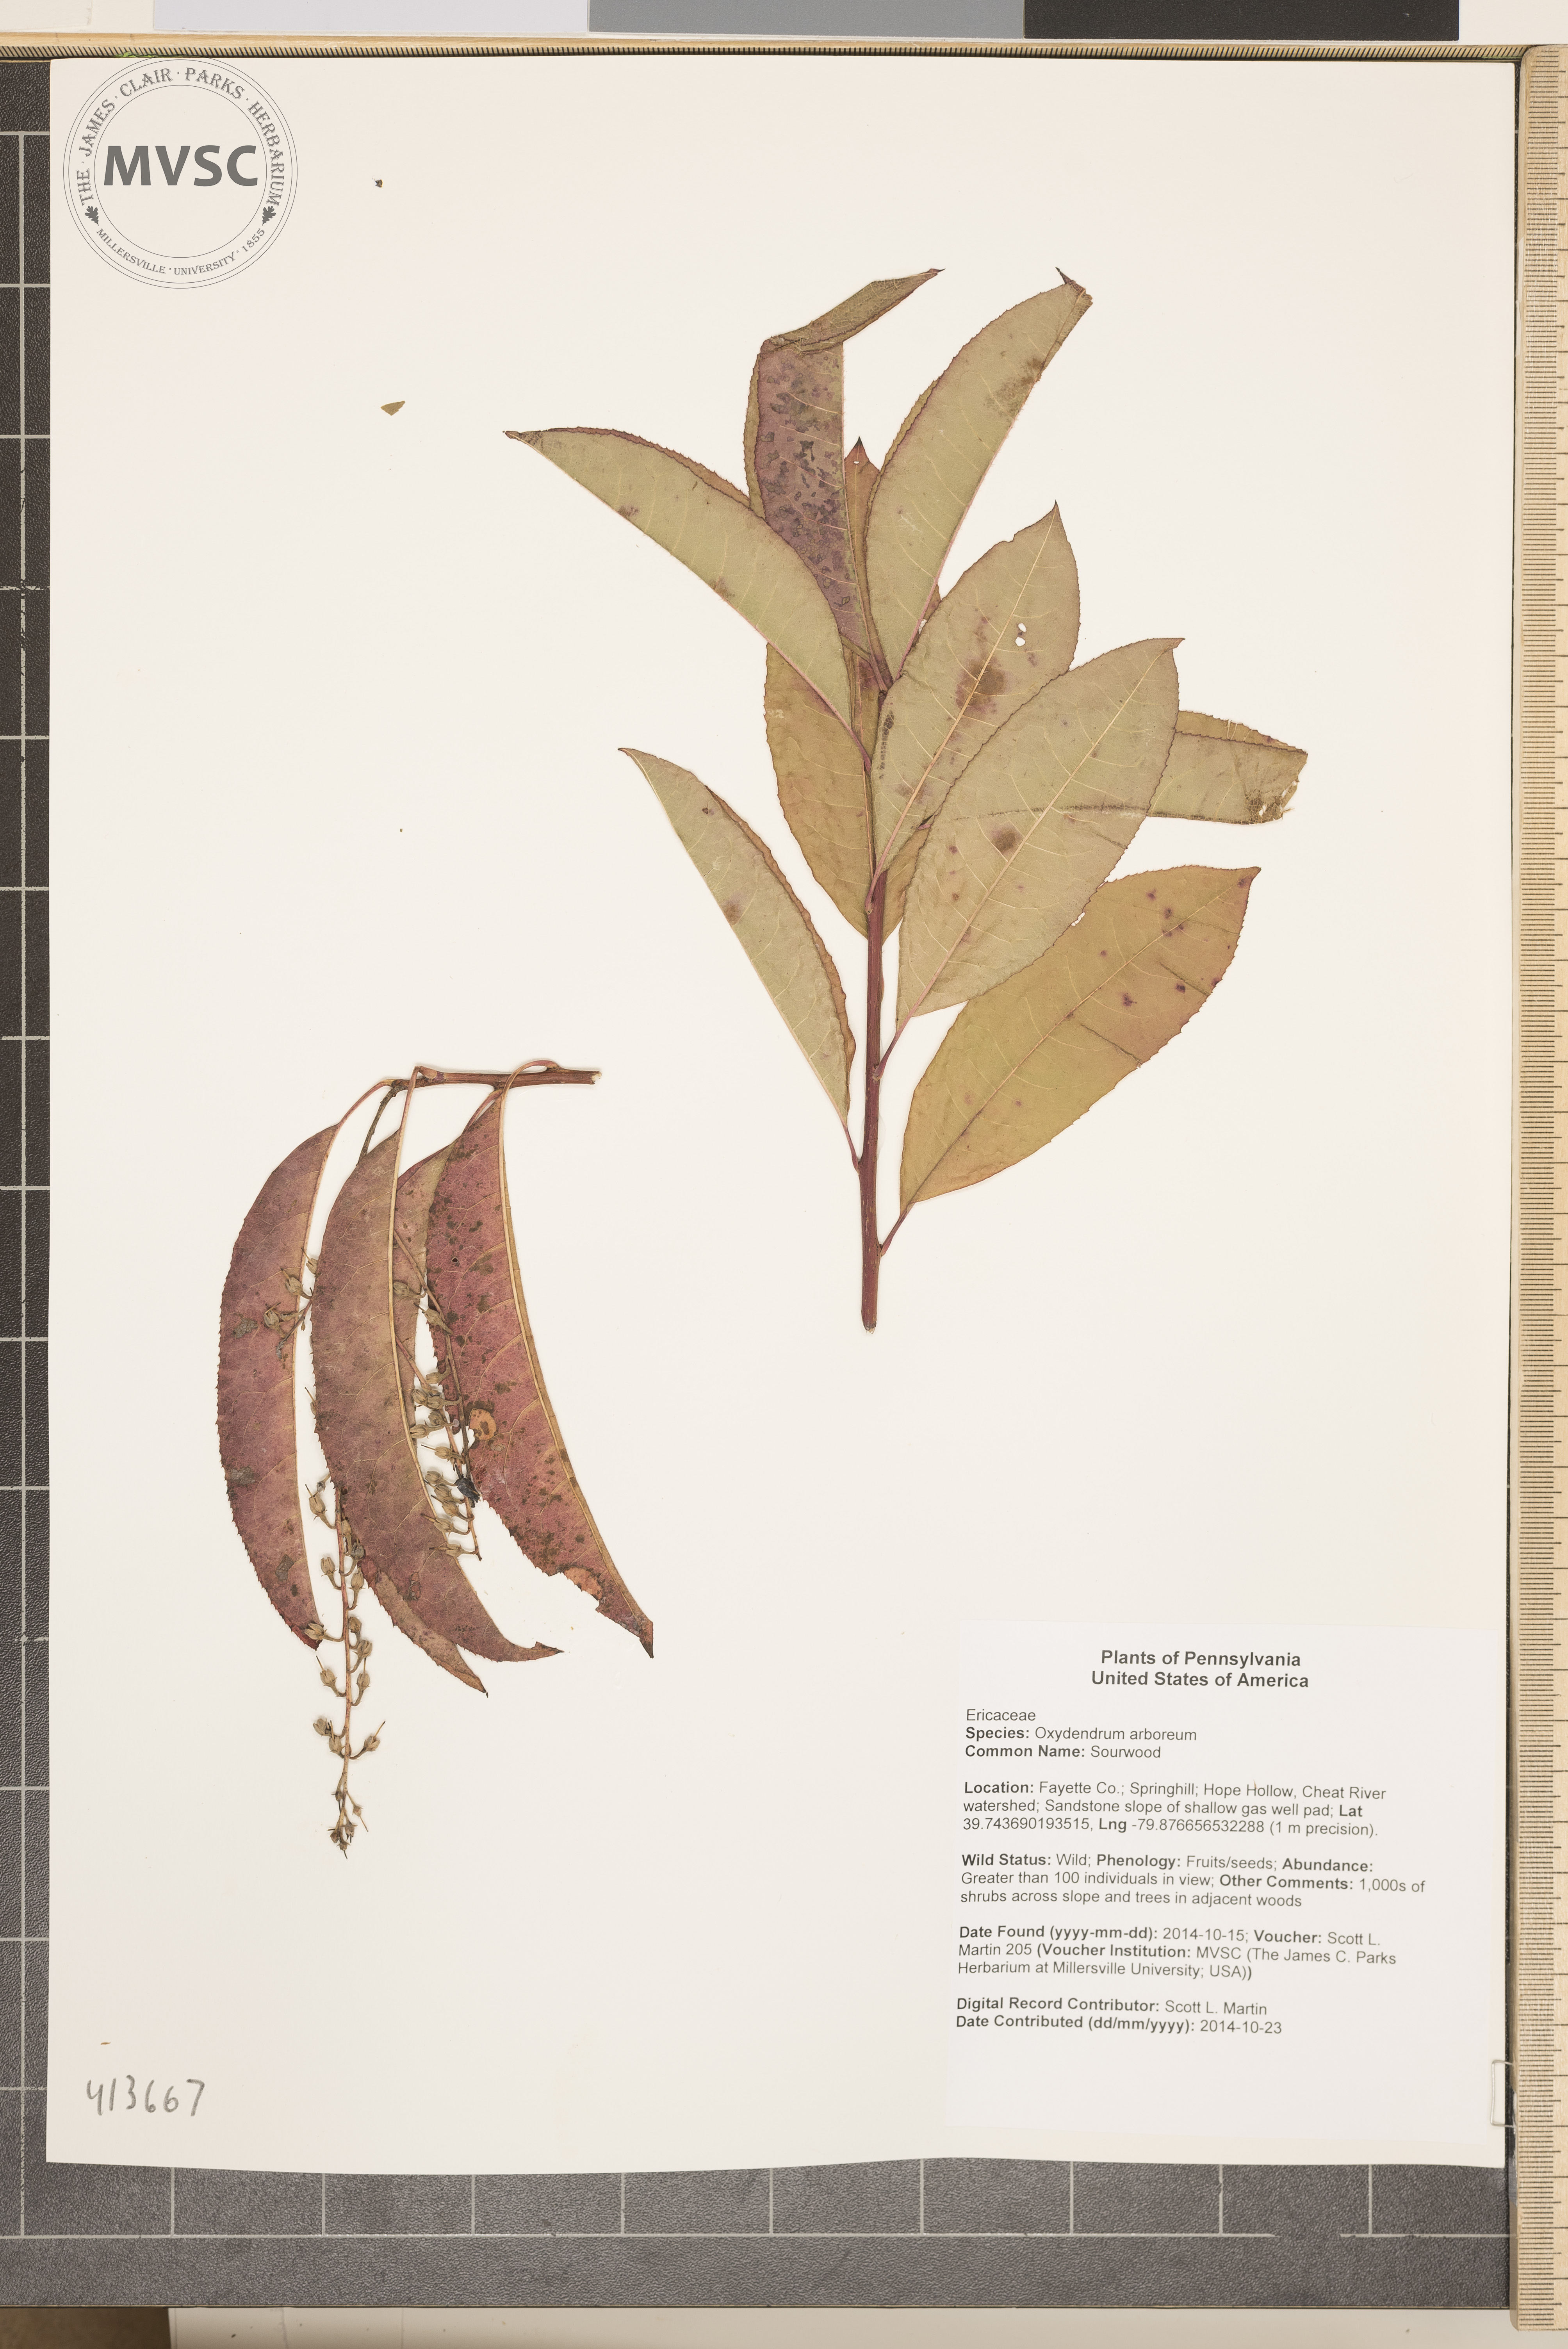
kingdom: Plantae
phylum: Tracheophyta
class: Magnoliopsida
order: Ericales
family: Ericaceae
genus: Oxydendrum
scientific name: Oxydendrum arboreum
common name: Sourwood
